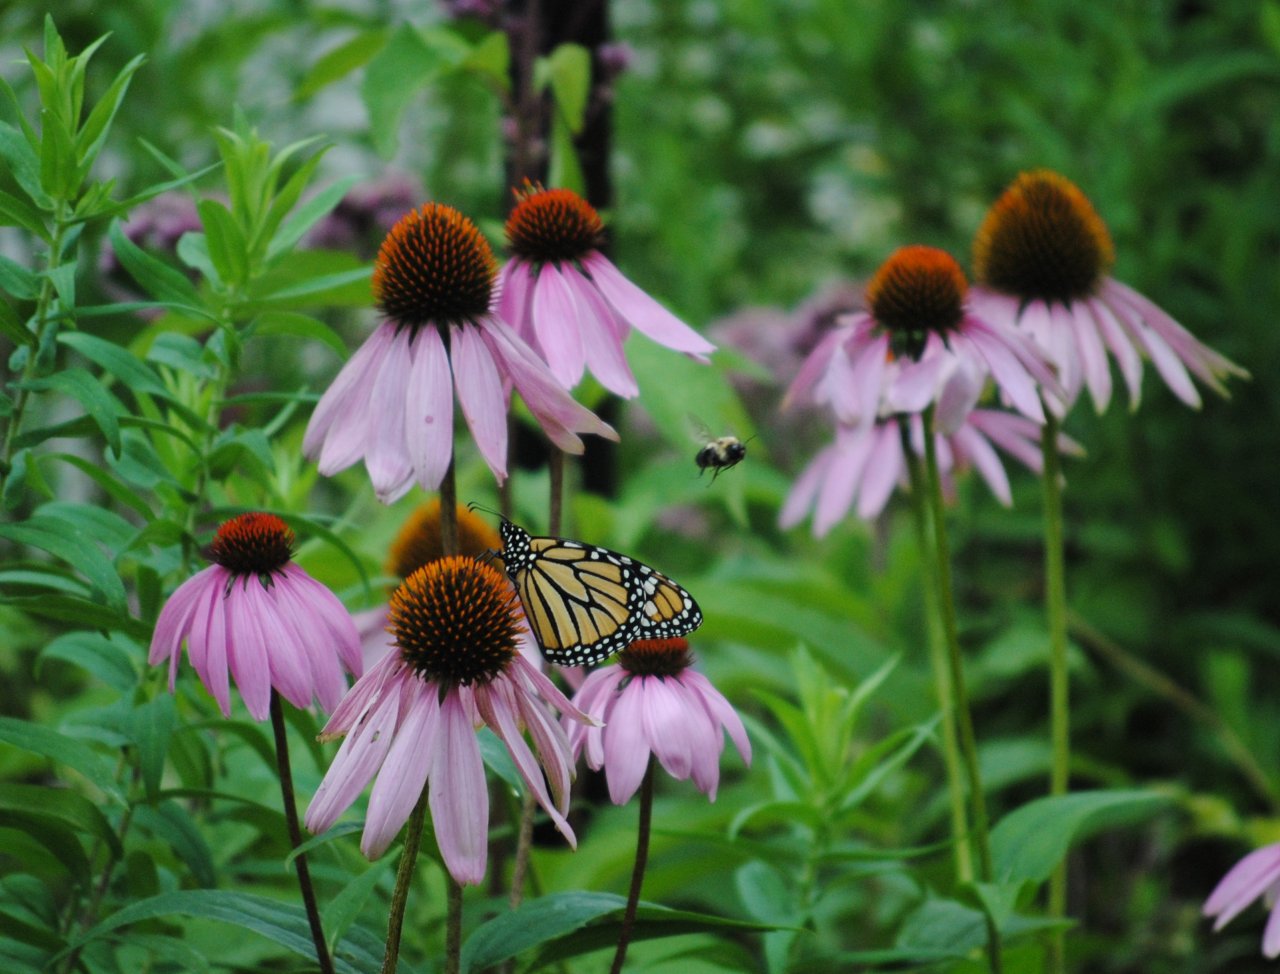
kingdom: Animalia
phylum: Arthropoda
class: Insecta
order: Lepidoptera
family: Nymphalidae
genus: Danaus
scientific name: Danaus plexippus
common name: Monarch
